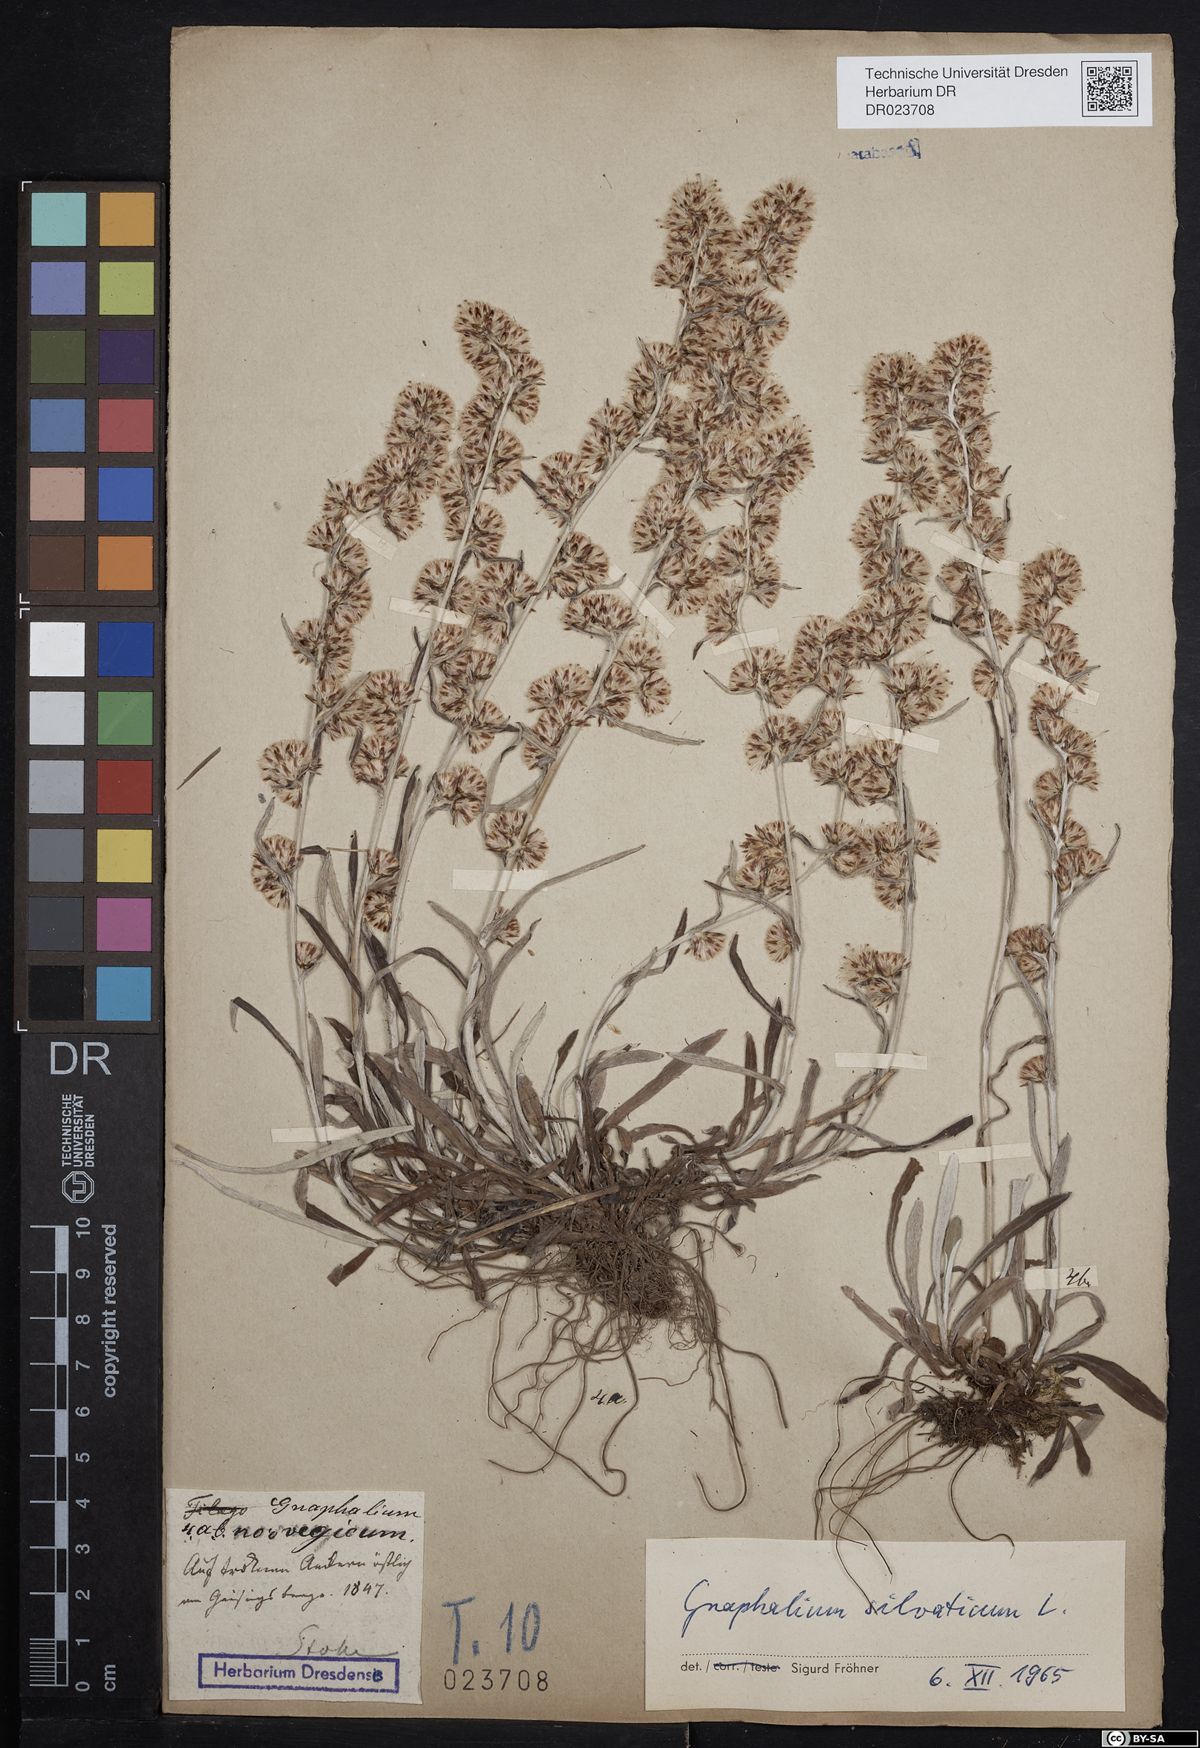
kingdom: Plantae
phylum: Tracheophyta
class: Magnoliopsida
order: Asterales
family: Asteraceae
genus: Omalotheca
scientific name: Omalotheca sylvatica
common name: Heath cudweed
